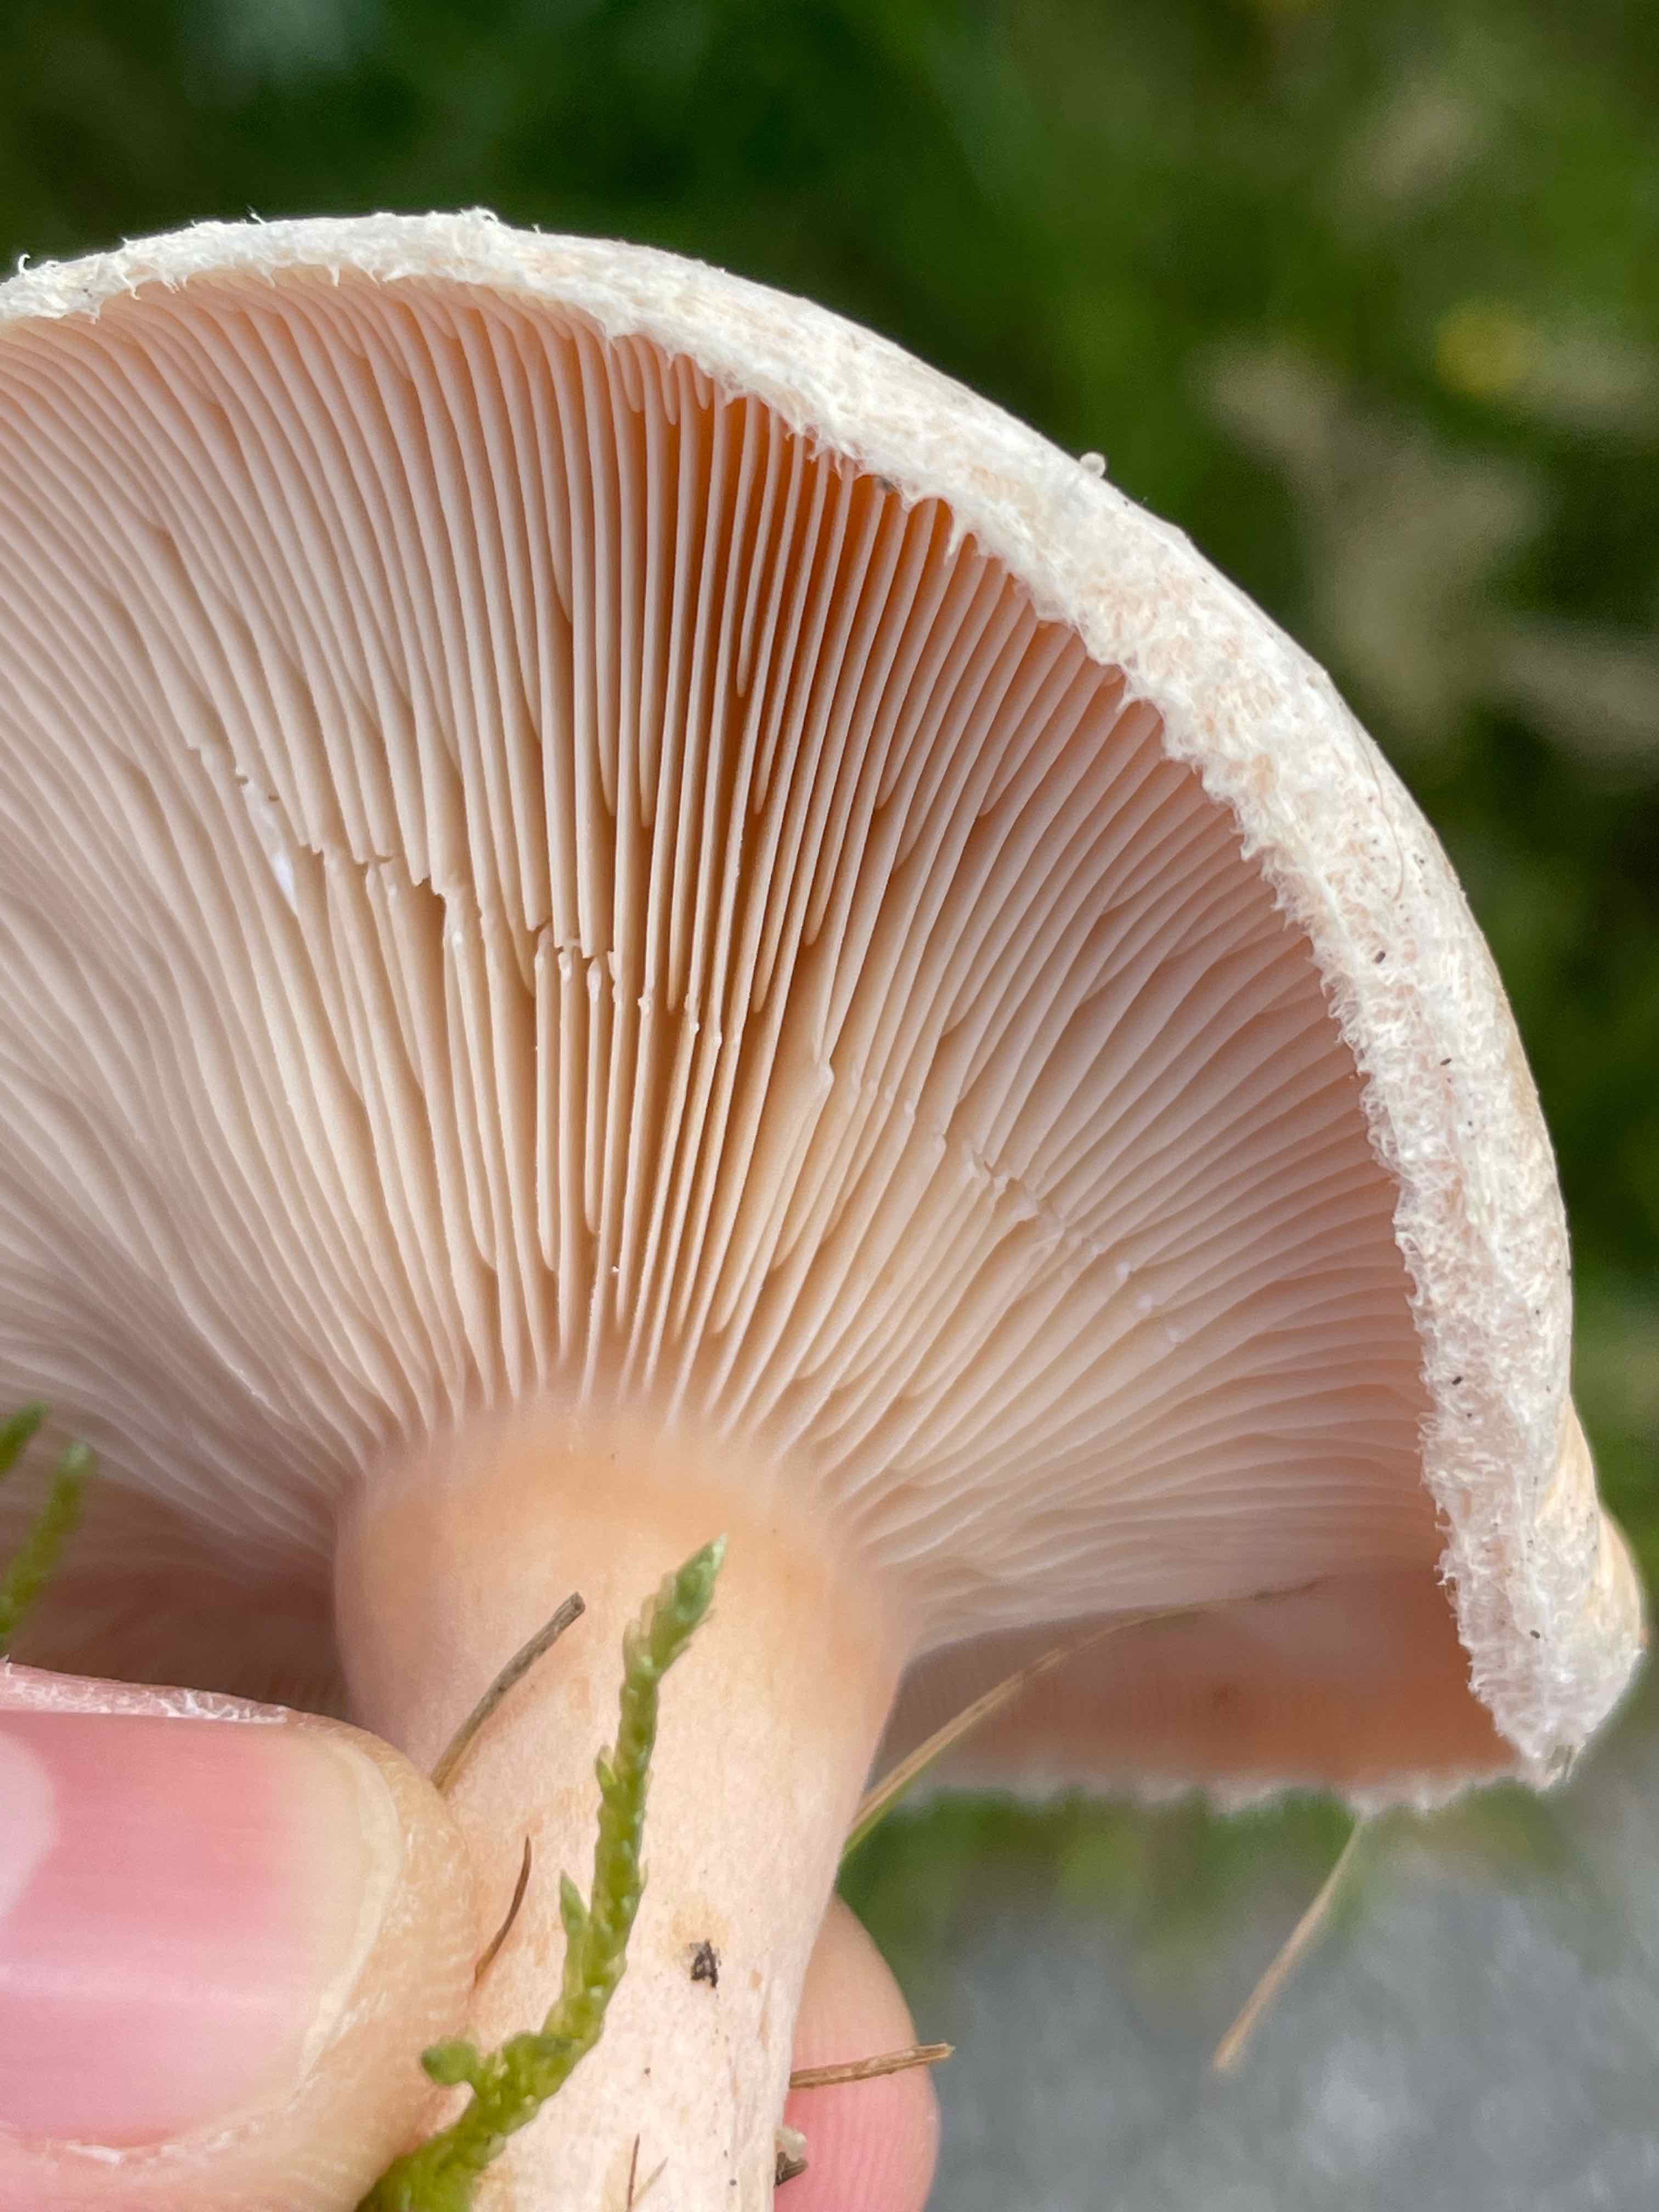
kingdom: Fungi
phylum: Basidiomycota
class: Agaricomycetes
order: Russulales
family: Russulaceae
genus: Lactarius
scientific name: Lactarius pubescens
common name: dunet mælkehat
